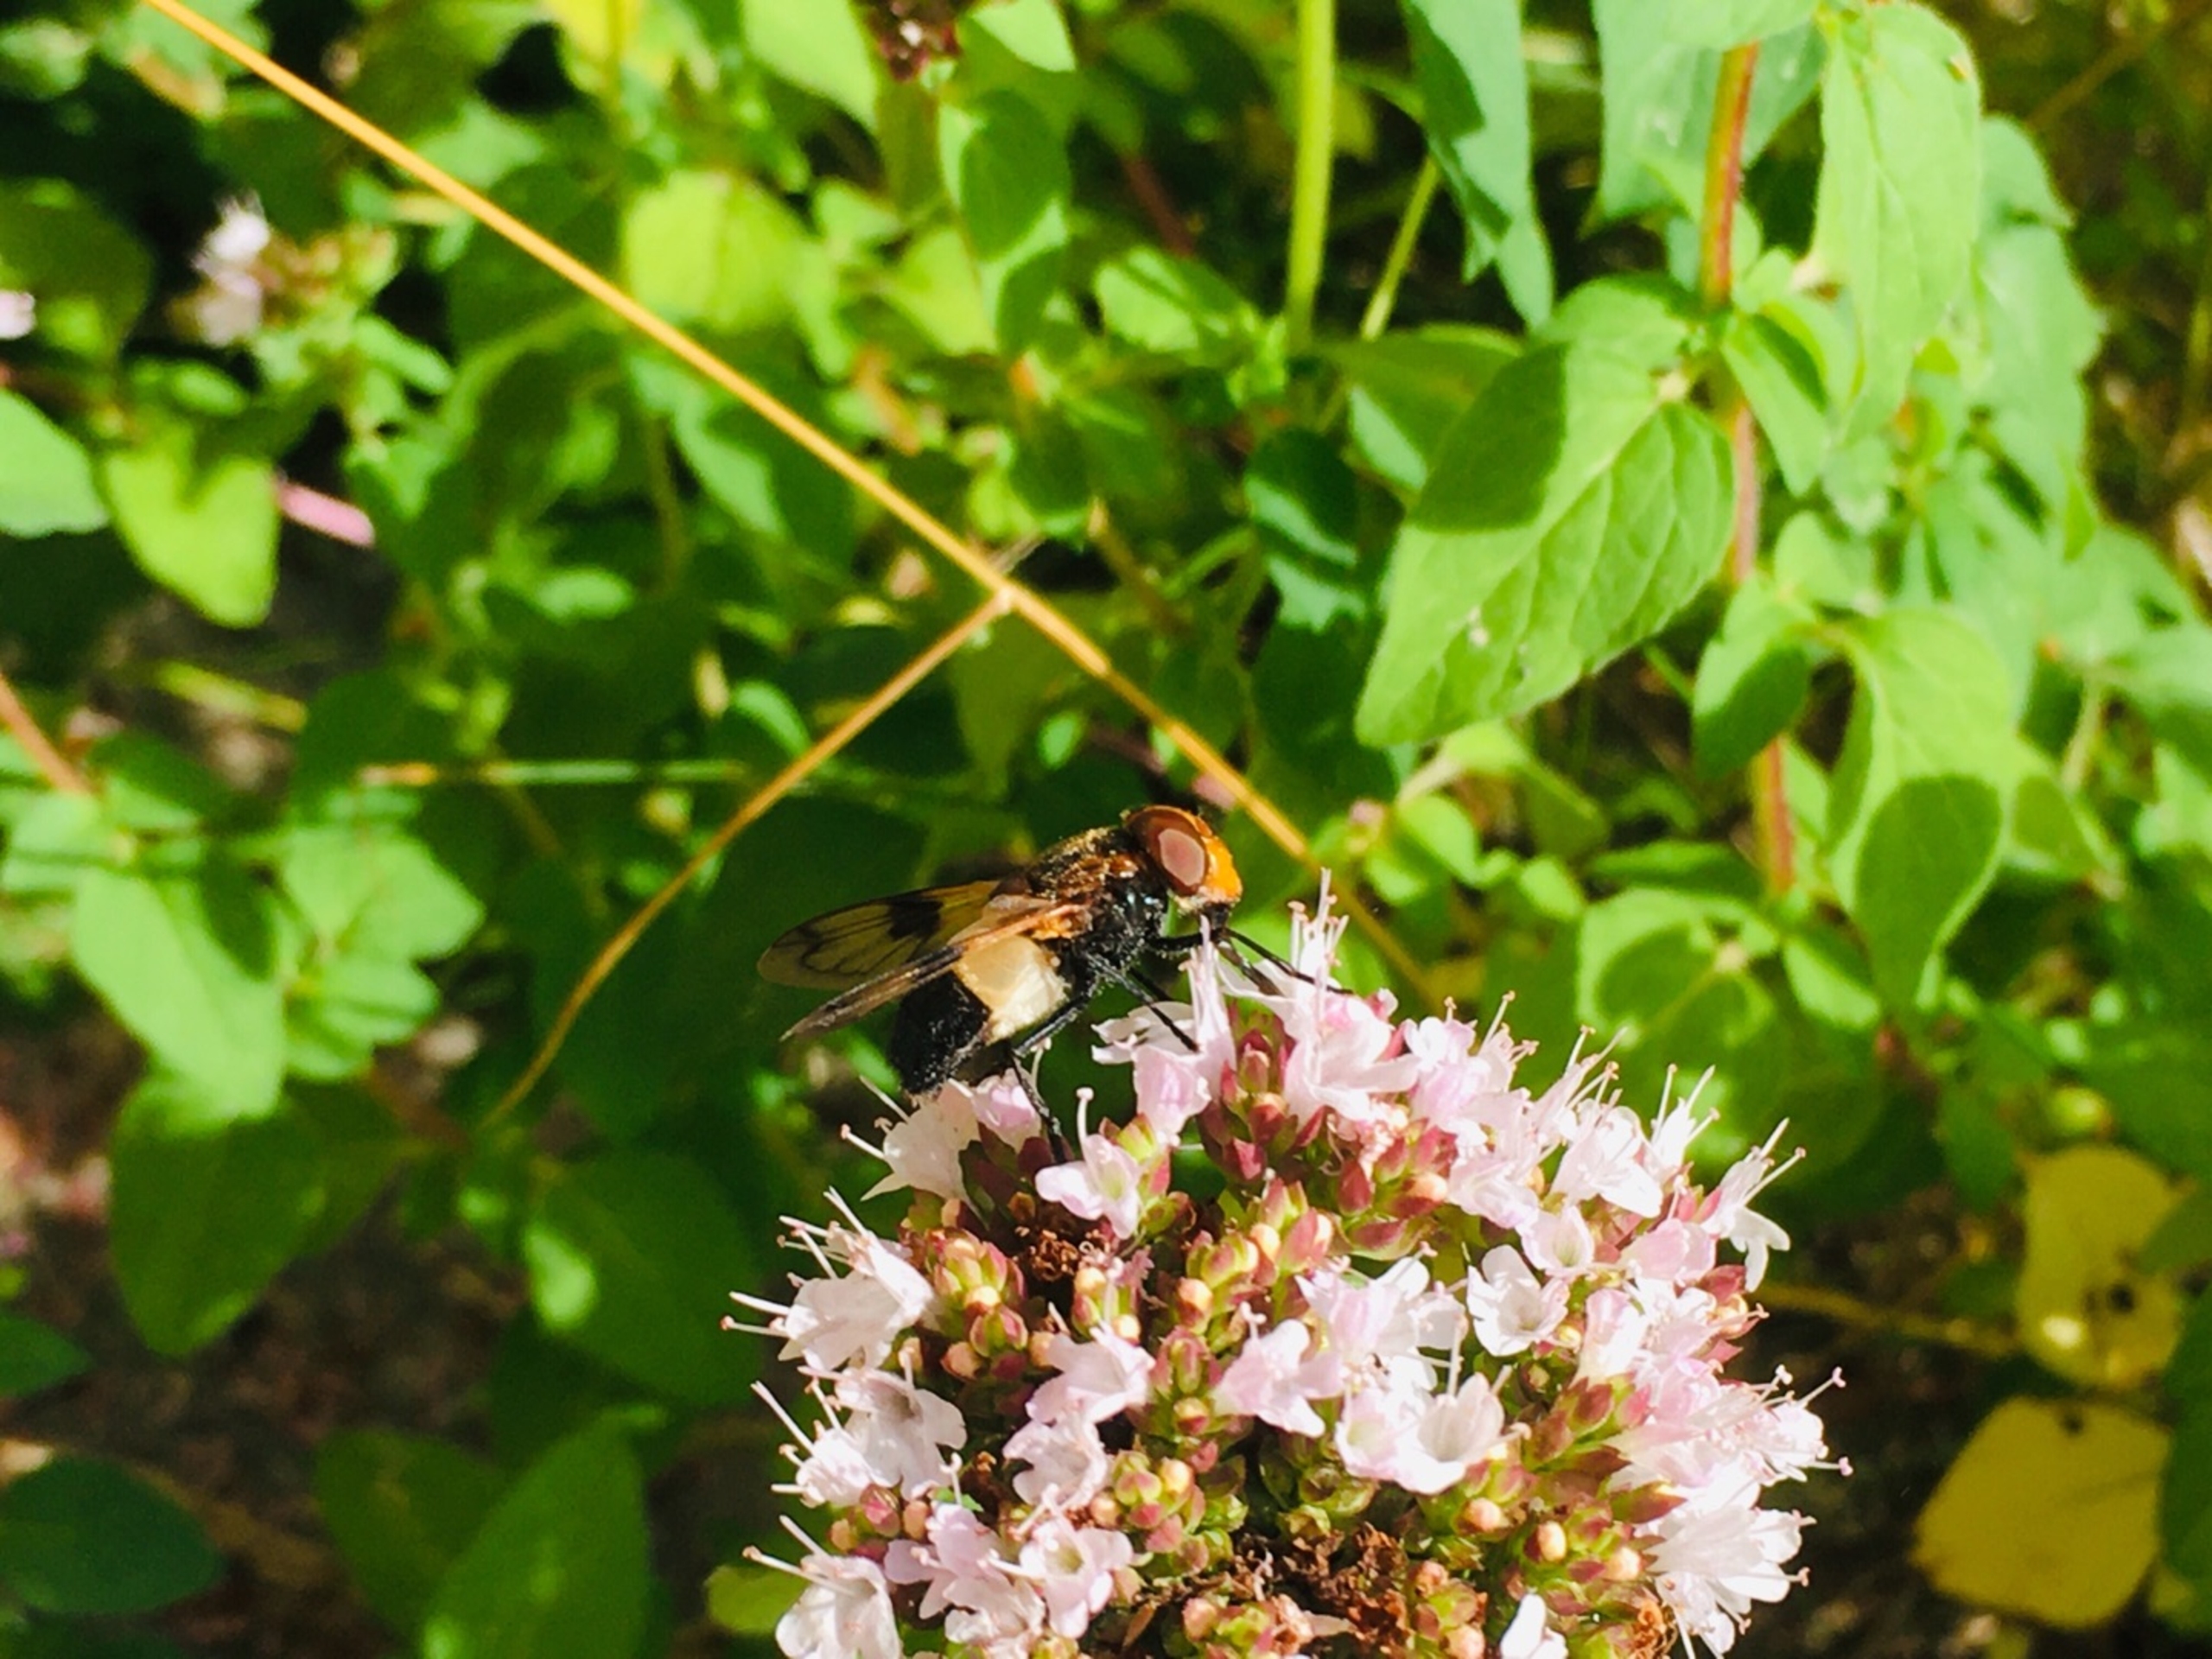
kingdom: Animalia
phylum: Arthropoda
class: Insecta
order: Diptera
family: Syrphidae
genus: Volucella
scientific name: Volucella pellucens
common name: Hvidbåndet humlesvirreflue
